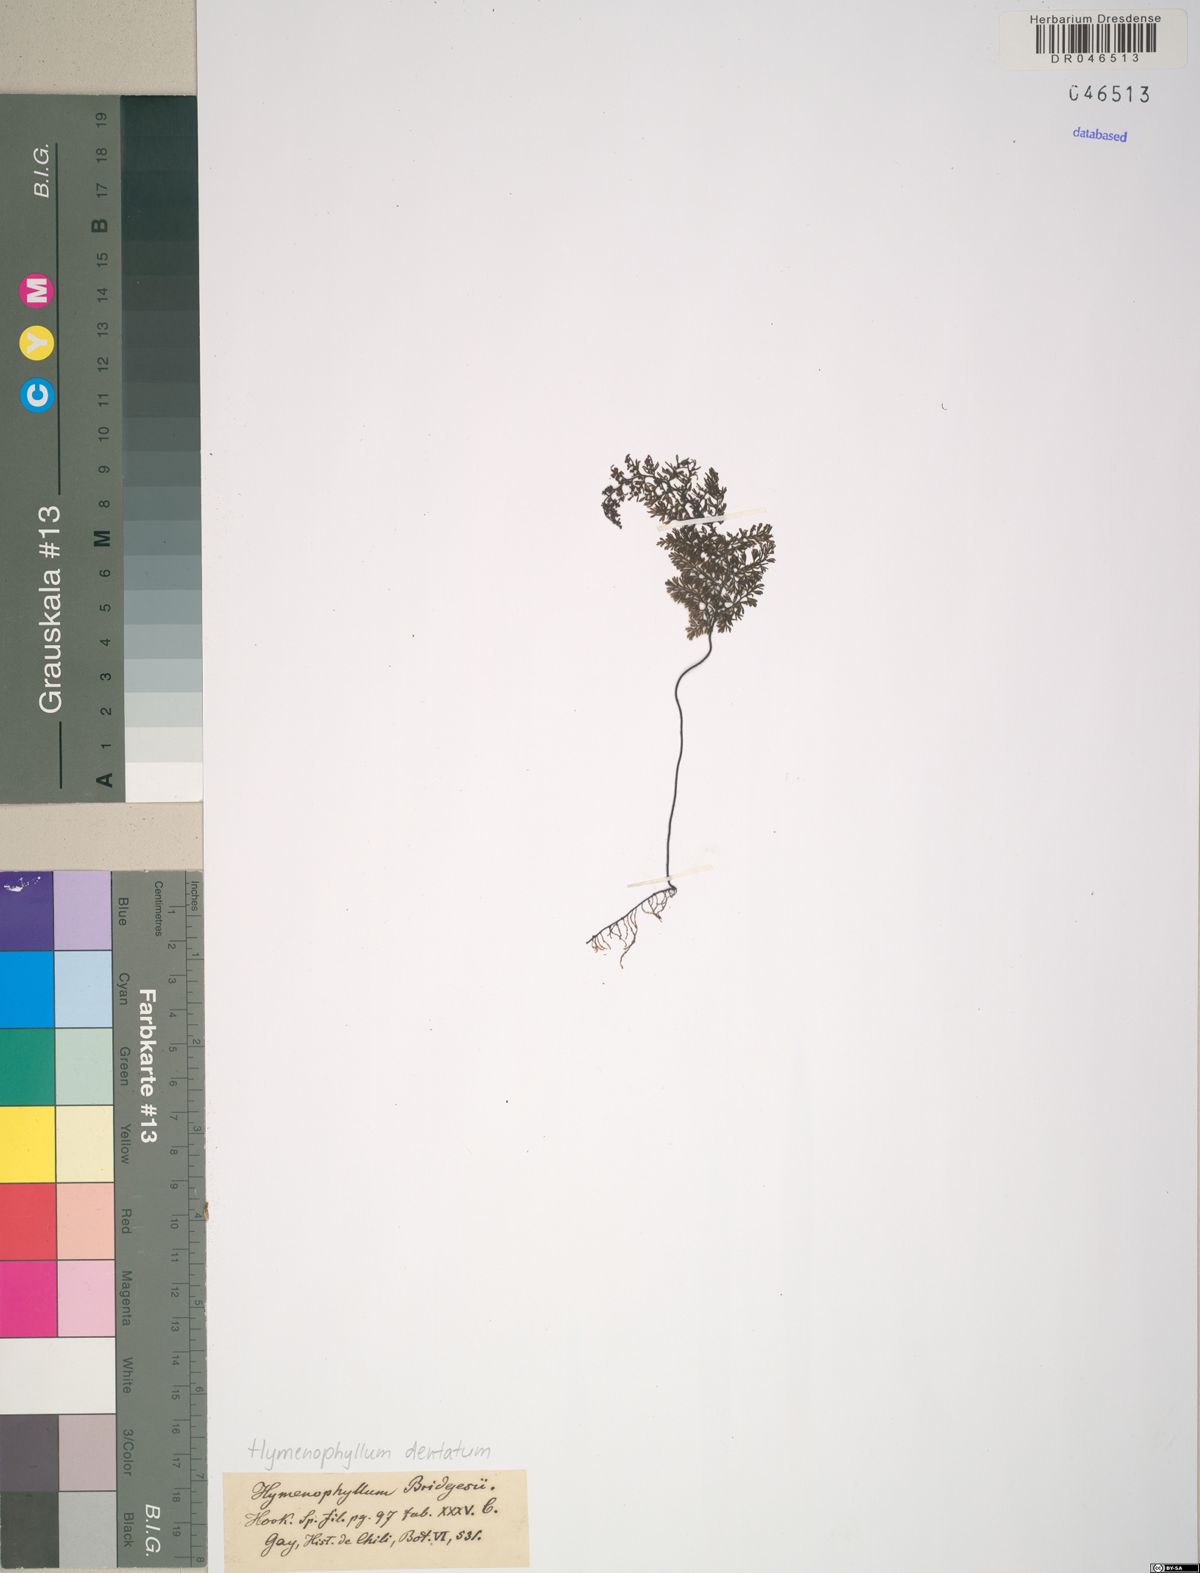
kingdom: Plantae
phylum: Tracheophyta
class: Polypodiopsida
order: Hymenophyllales
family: Hymenophyllaceae
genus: Hymenophyllum
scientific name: Hymenophyllum dentatum
